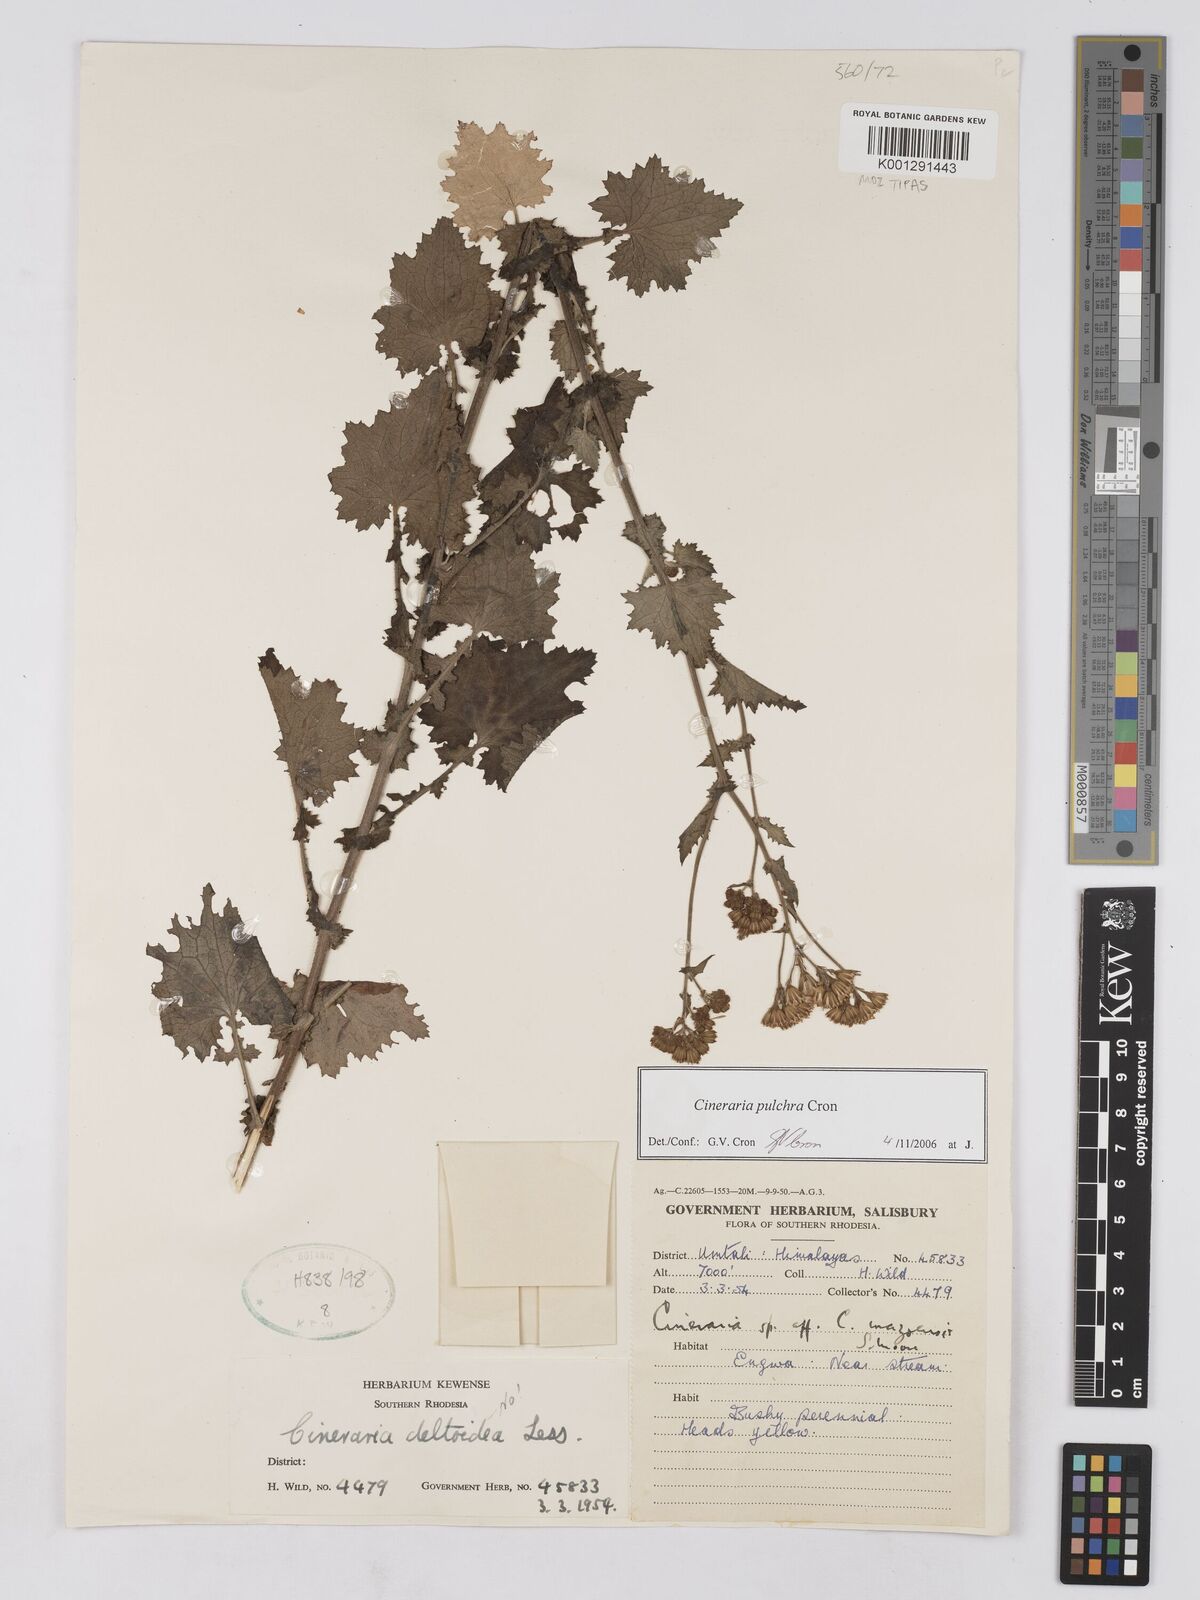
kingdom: Plantae
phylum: Tracheophyta
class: Magnoliopsida
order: Asterales
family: Asteraceae
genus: Cineraria
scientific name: Cineraria pulchra
